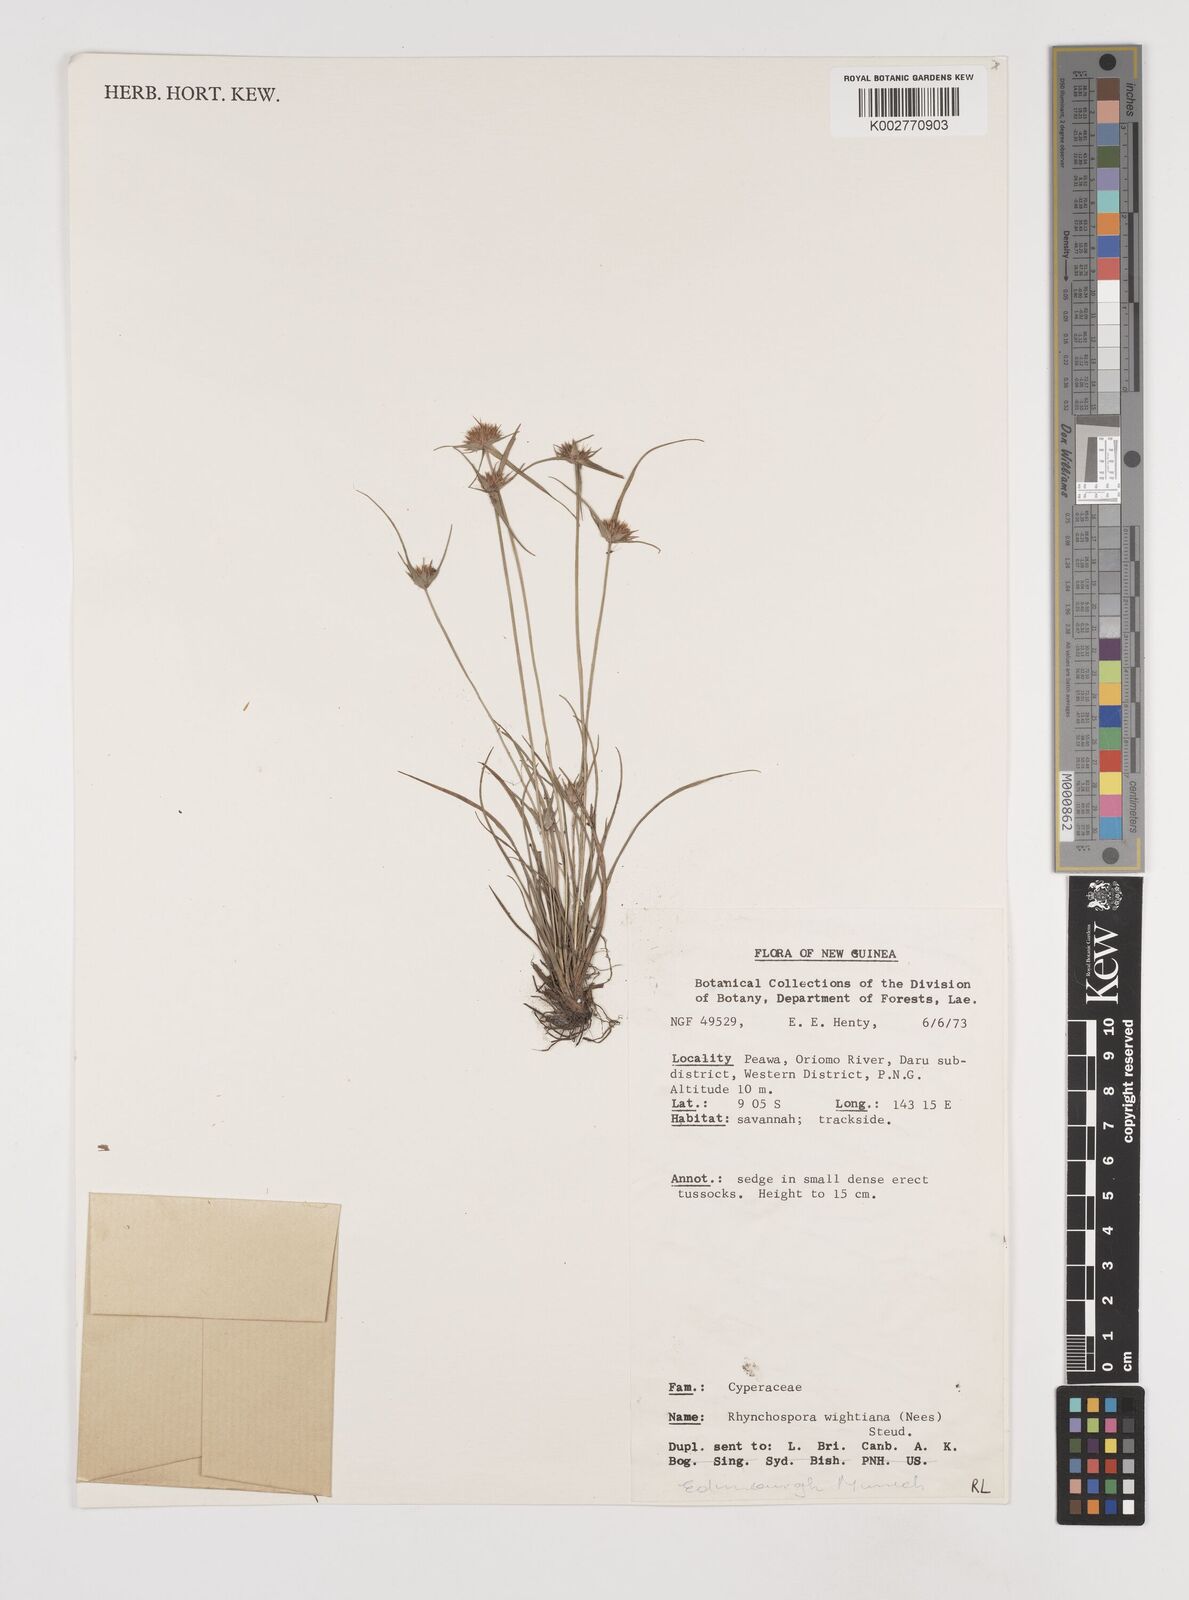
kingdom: Plantae
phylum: Tracheophyta
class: Liliopsida
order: Poales
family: Cyperaceae
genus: Rhynchospora
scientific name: Rhynchospora wightiana
